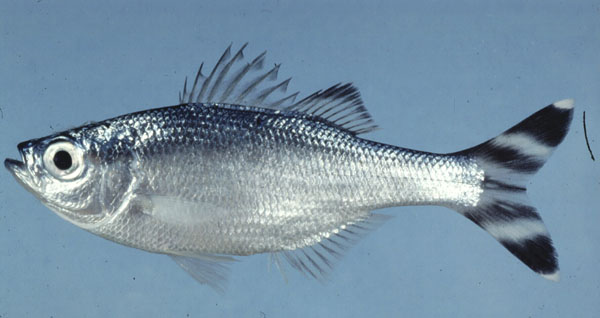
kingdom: Animalia
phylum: Chordata
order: Perciformes
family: Kuhliidae
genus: Kuhlia
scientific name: Kuhlia mugil
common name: Barred flagtail
